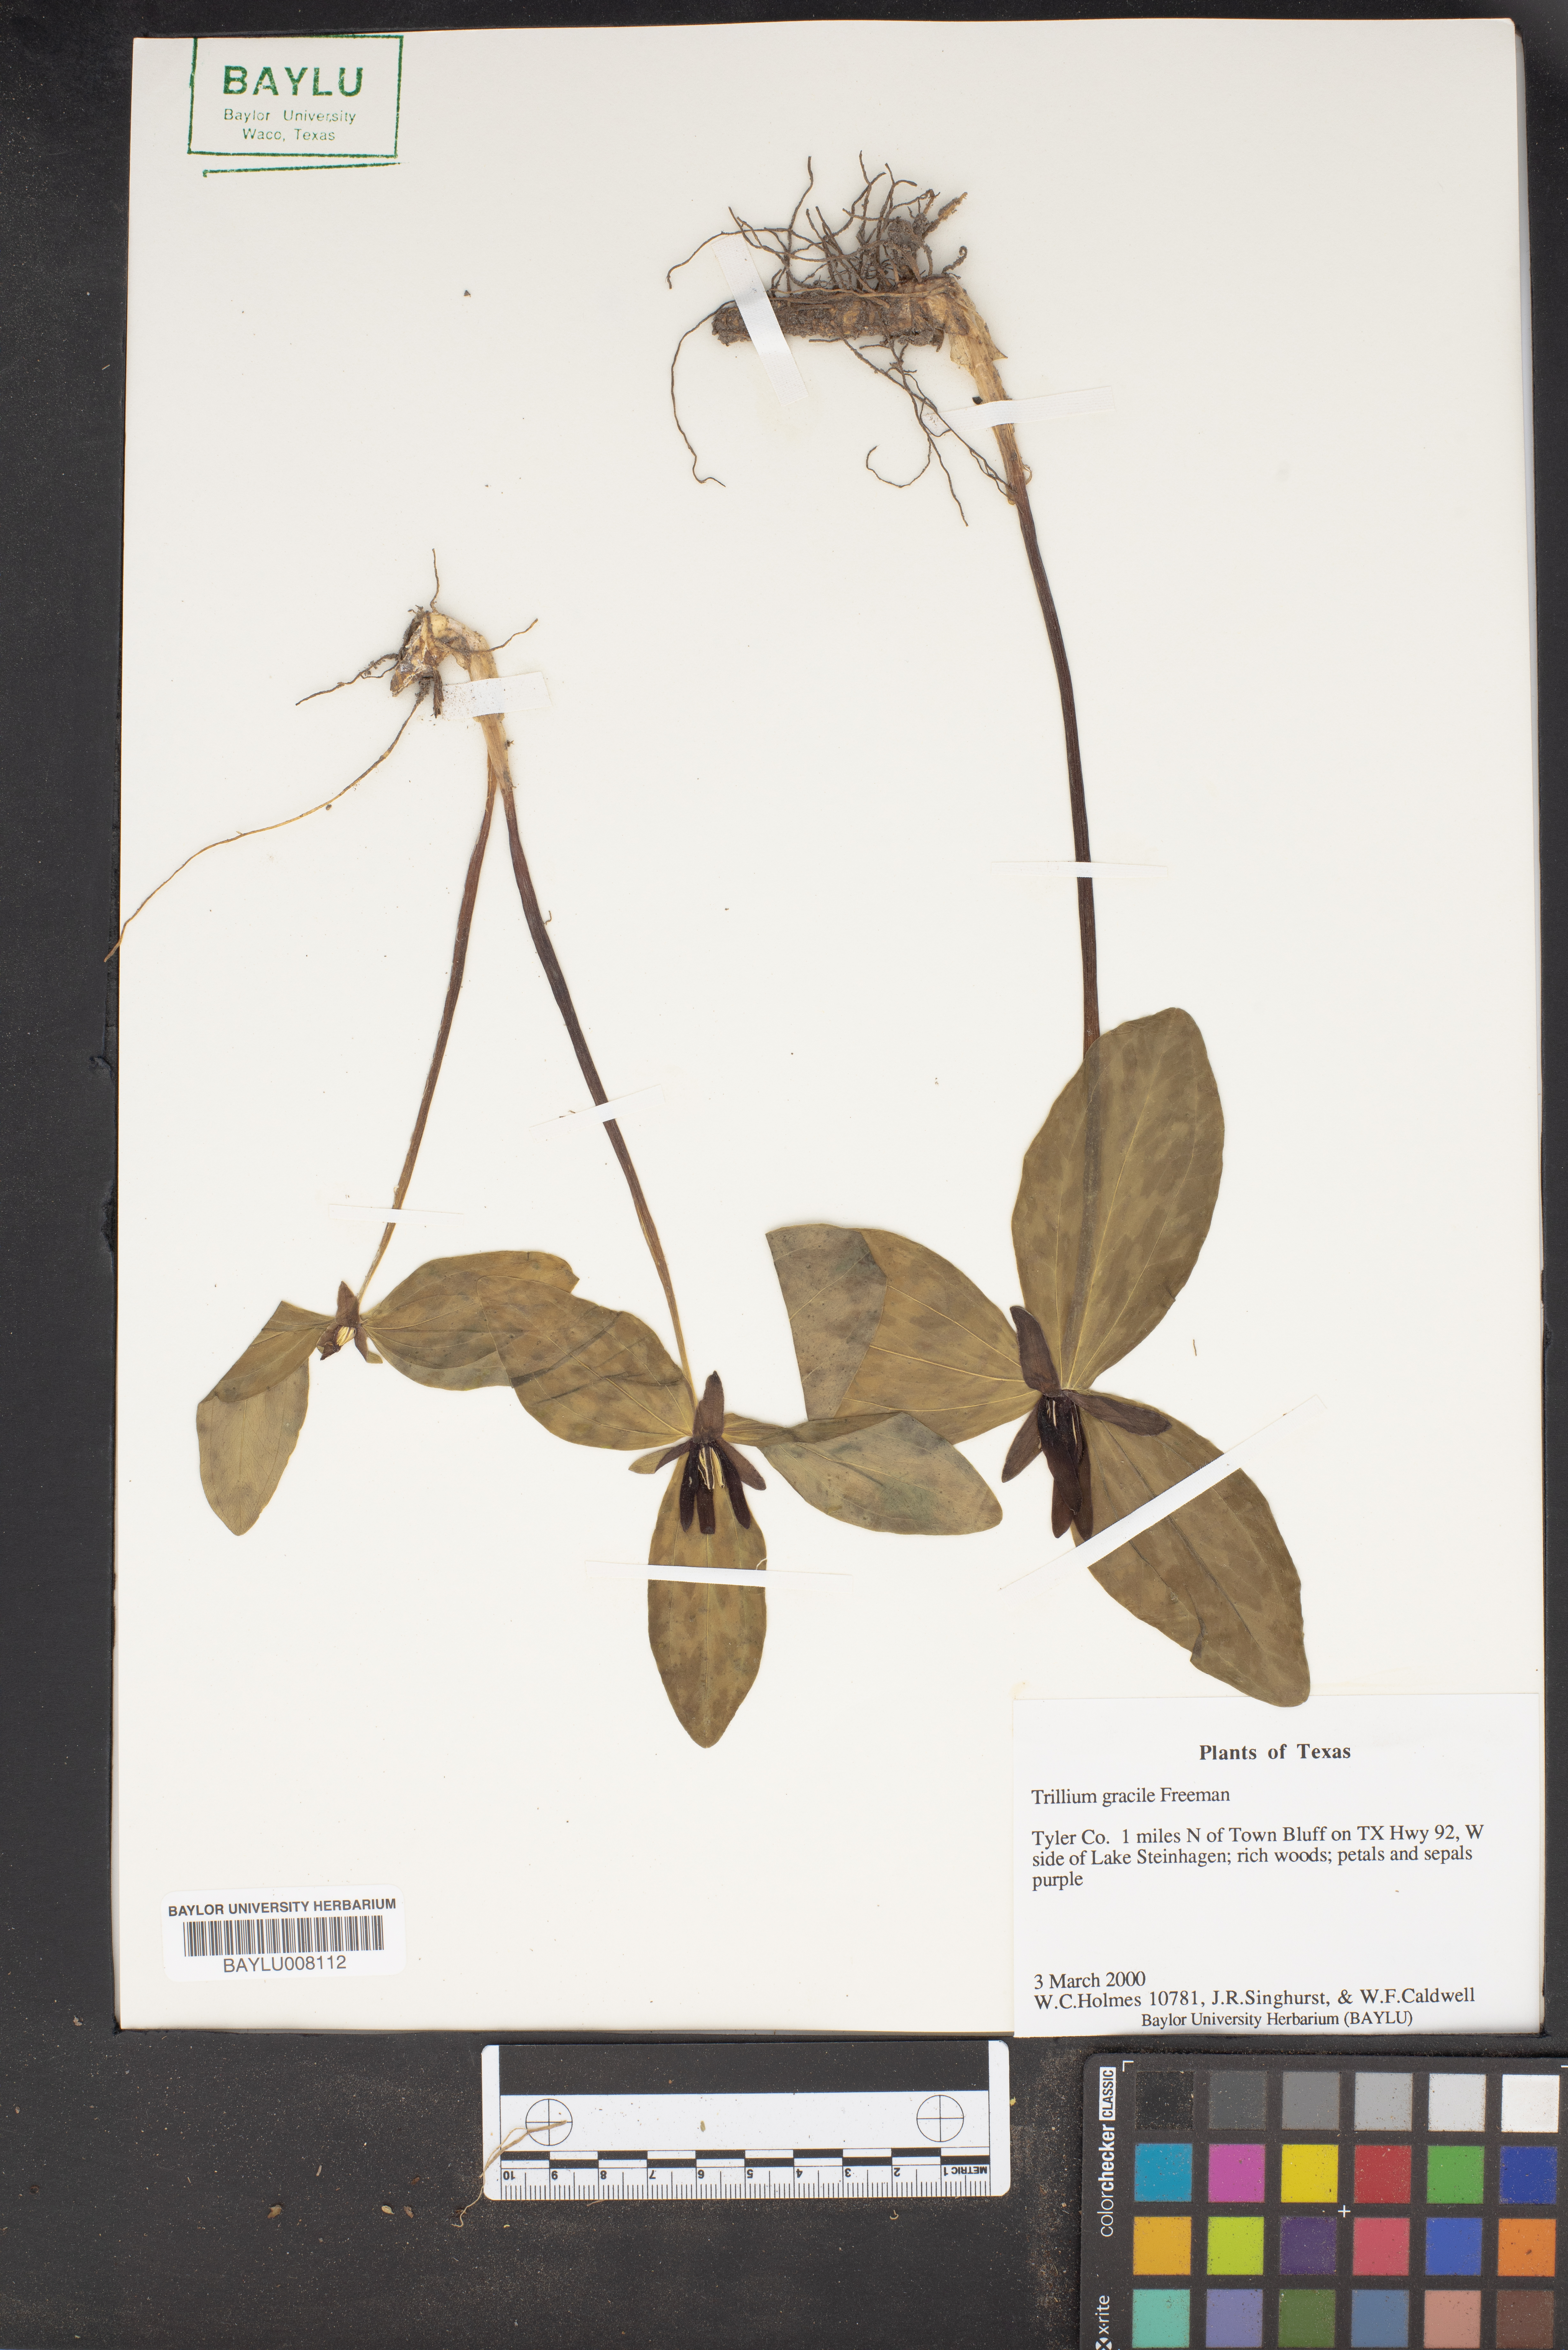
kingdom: Plantae
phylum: Tracheophyta
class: Liliopsida
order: Liliales
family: Melanthiaceae
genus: Trillium
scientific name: Trillium gracile
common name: Graceful trillium
